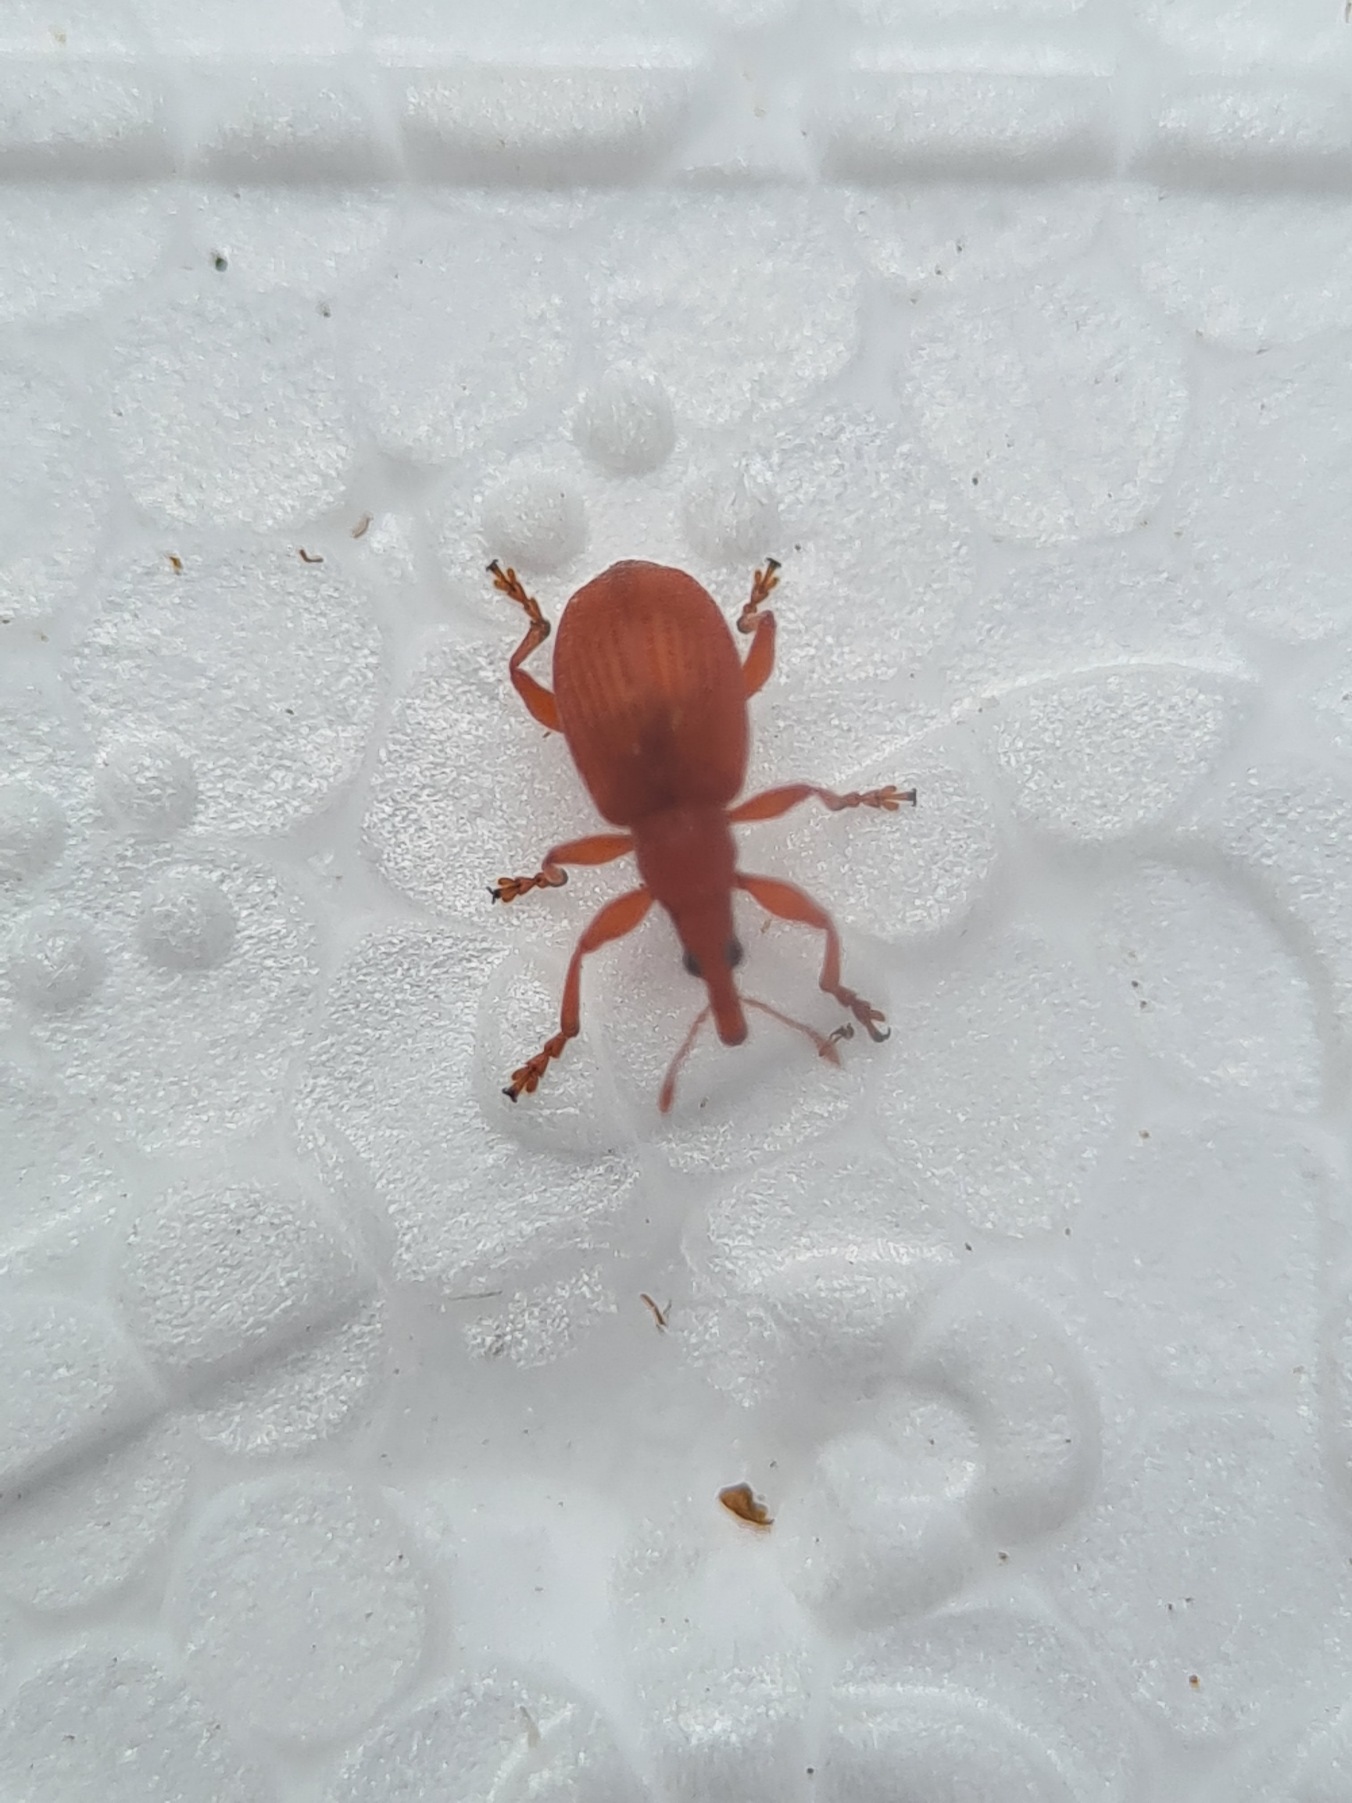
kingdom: Animalia
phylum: Arthropoda
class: Insecta
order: Coleoptera
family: Apionidae
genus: Apion
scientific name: Apion frumentarium
